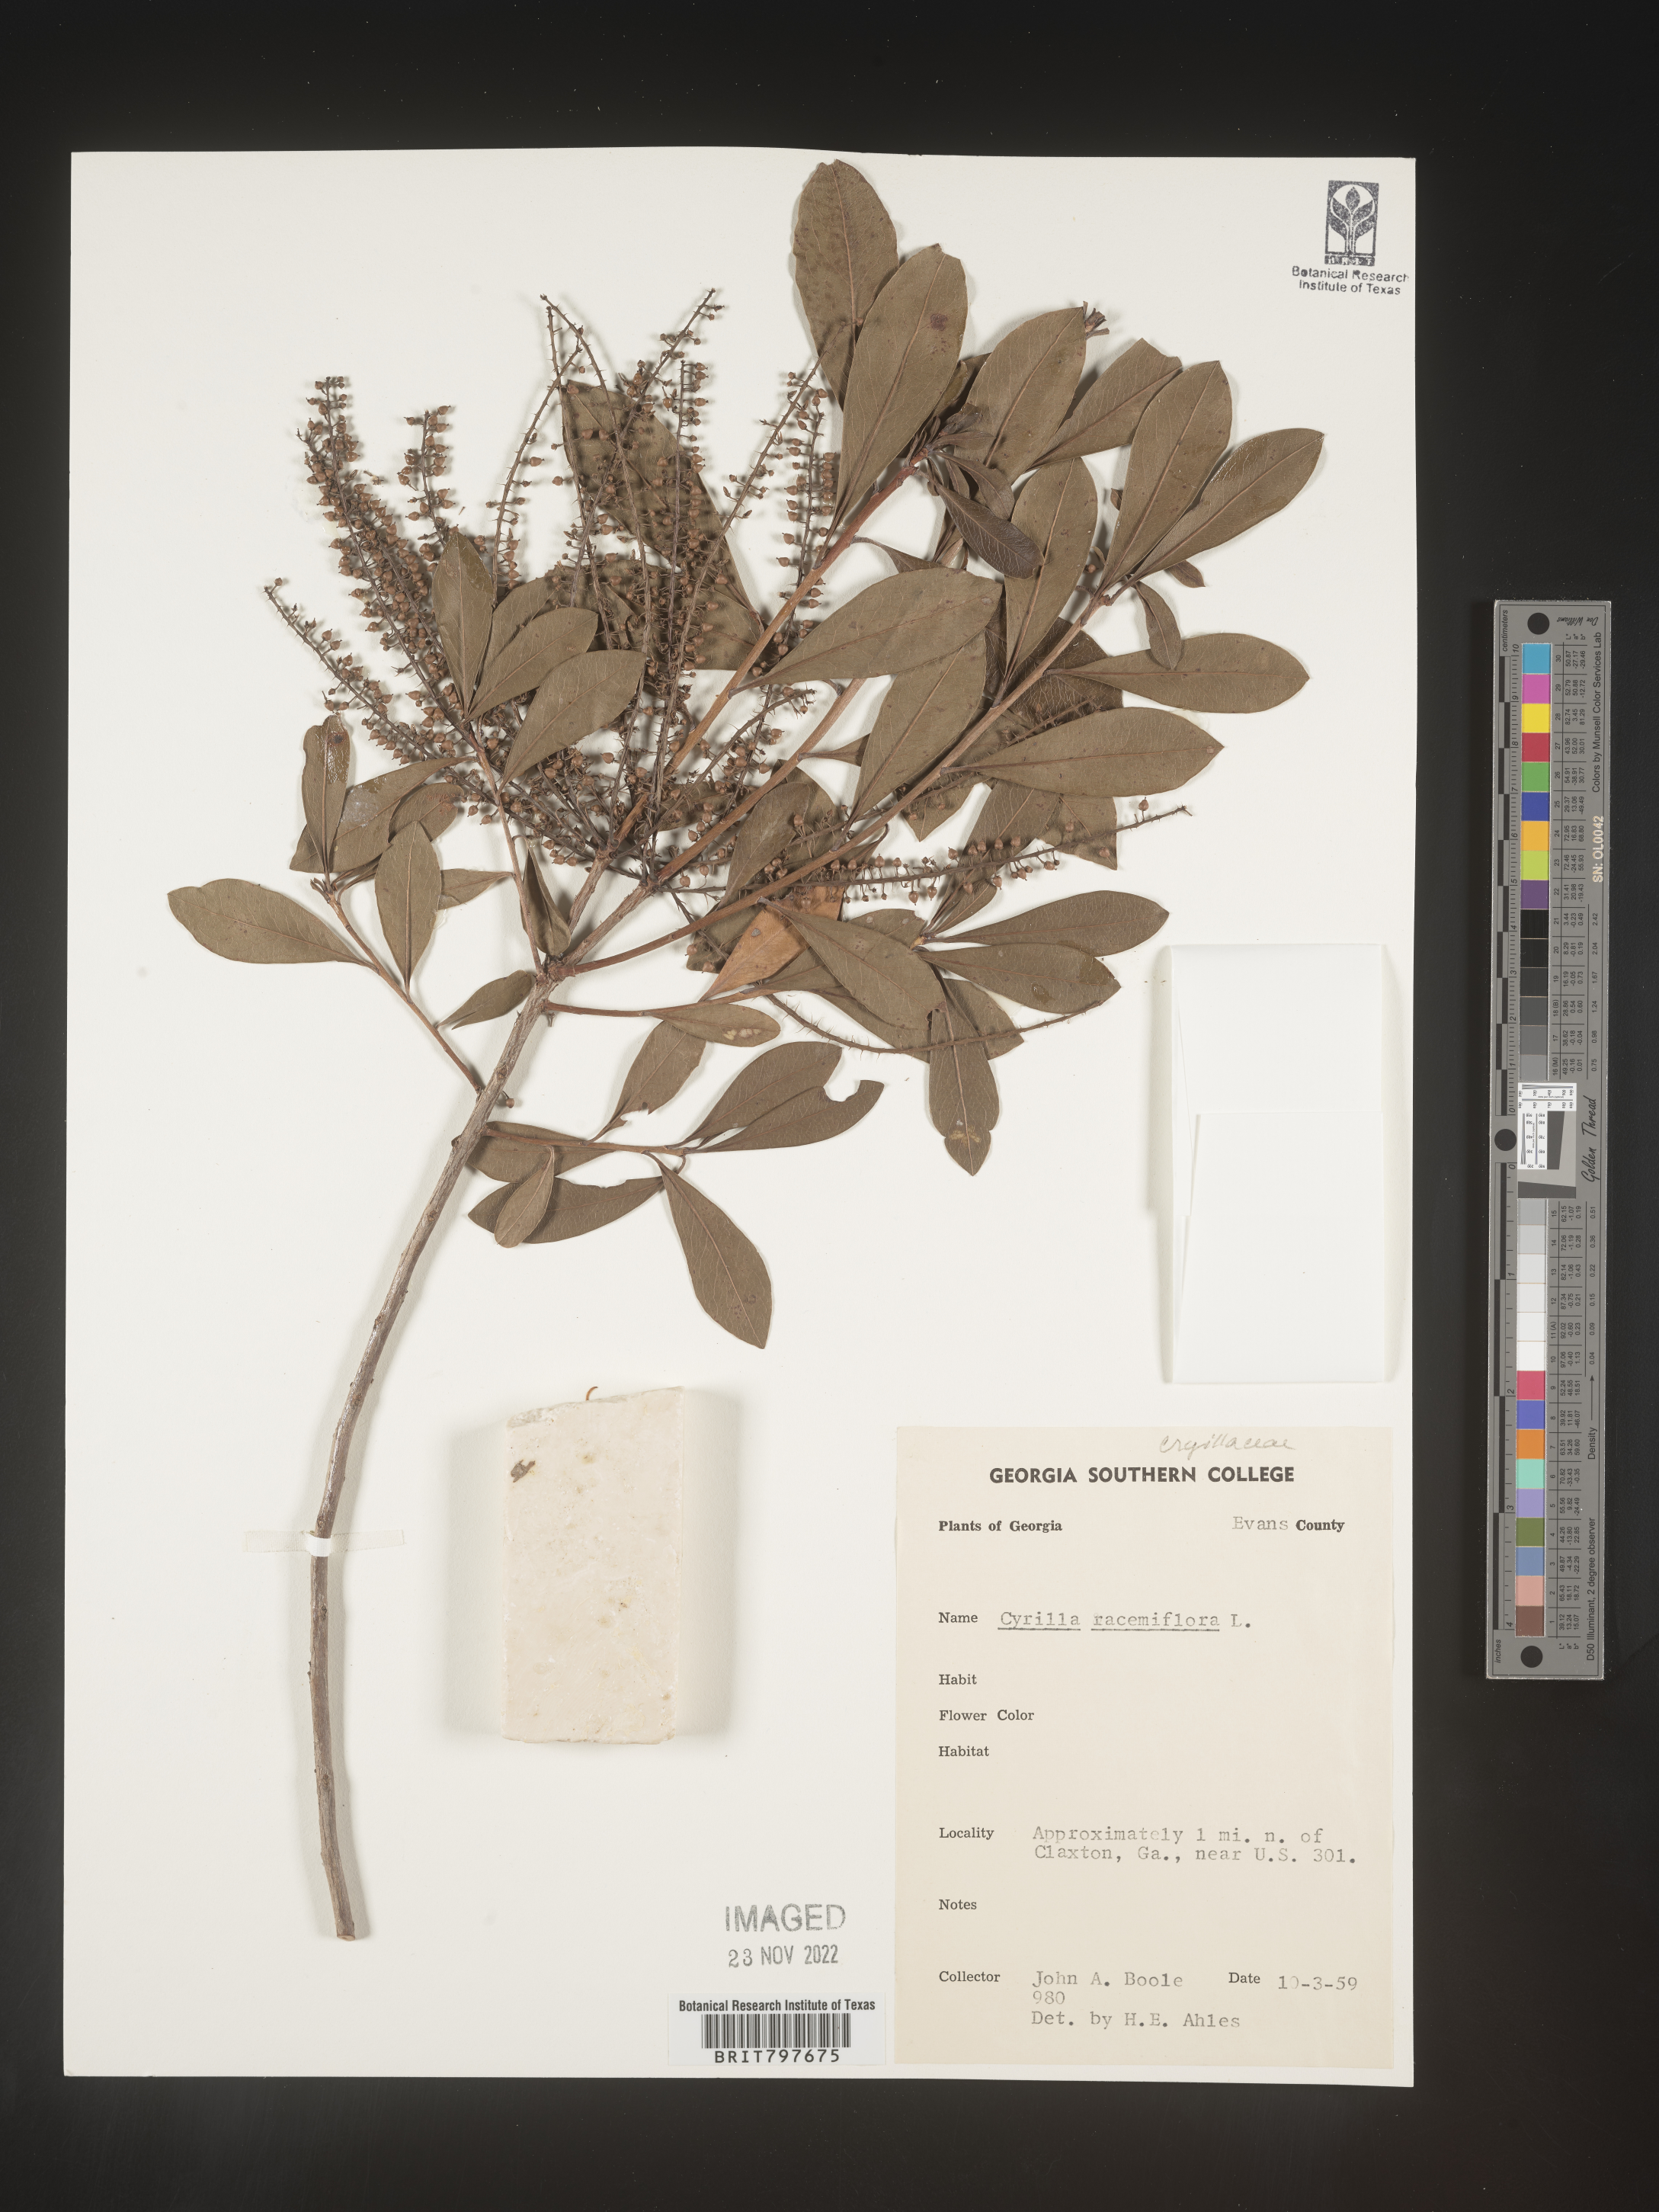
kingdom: Plantae
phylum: Tracheophyta
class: Magnoliopsida
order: Ericales
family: Cyrillaceae
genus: Cyrilla
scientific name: Cyrilla racemiflora
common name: Black titi
